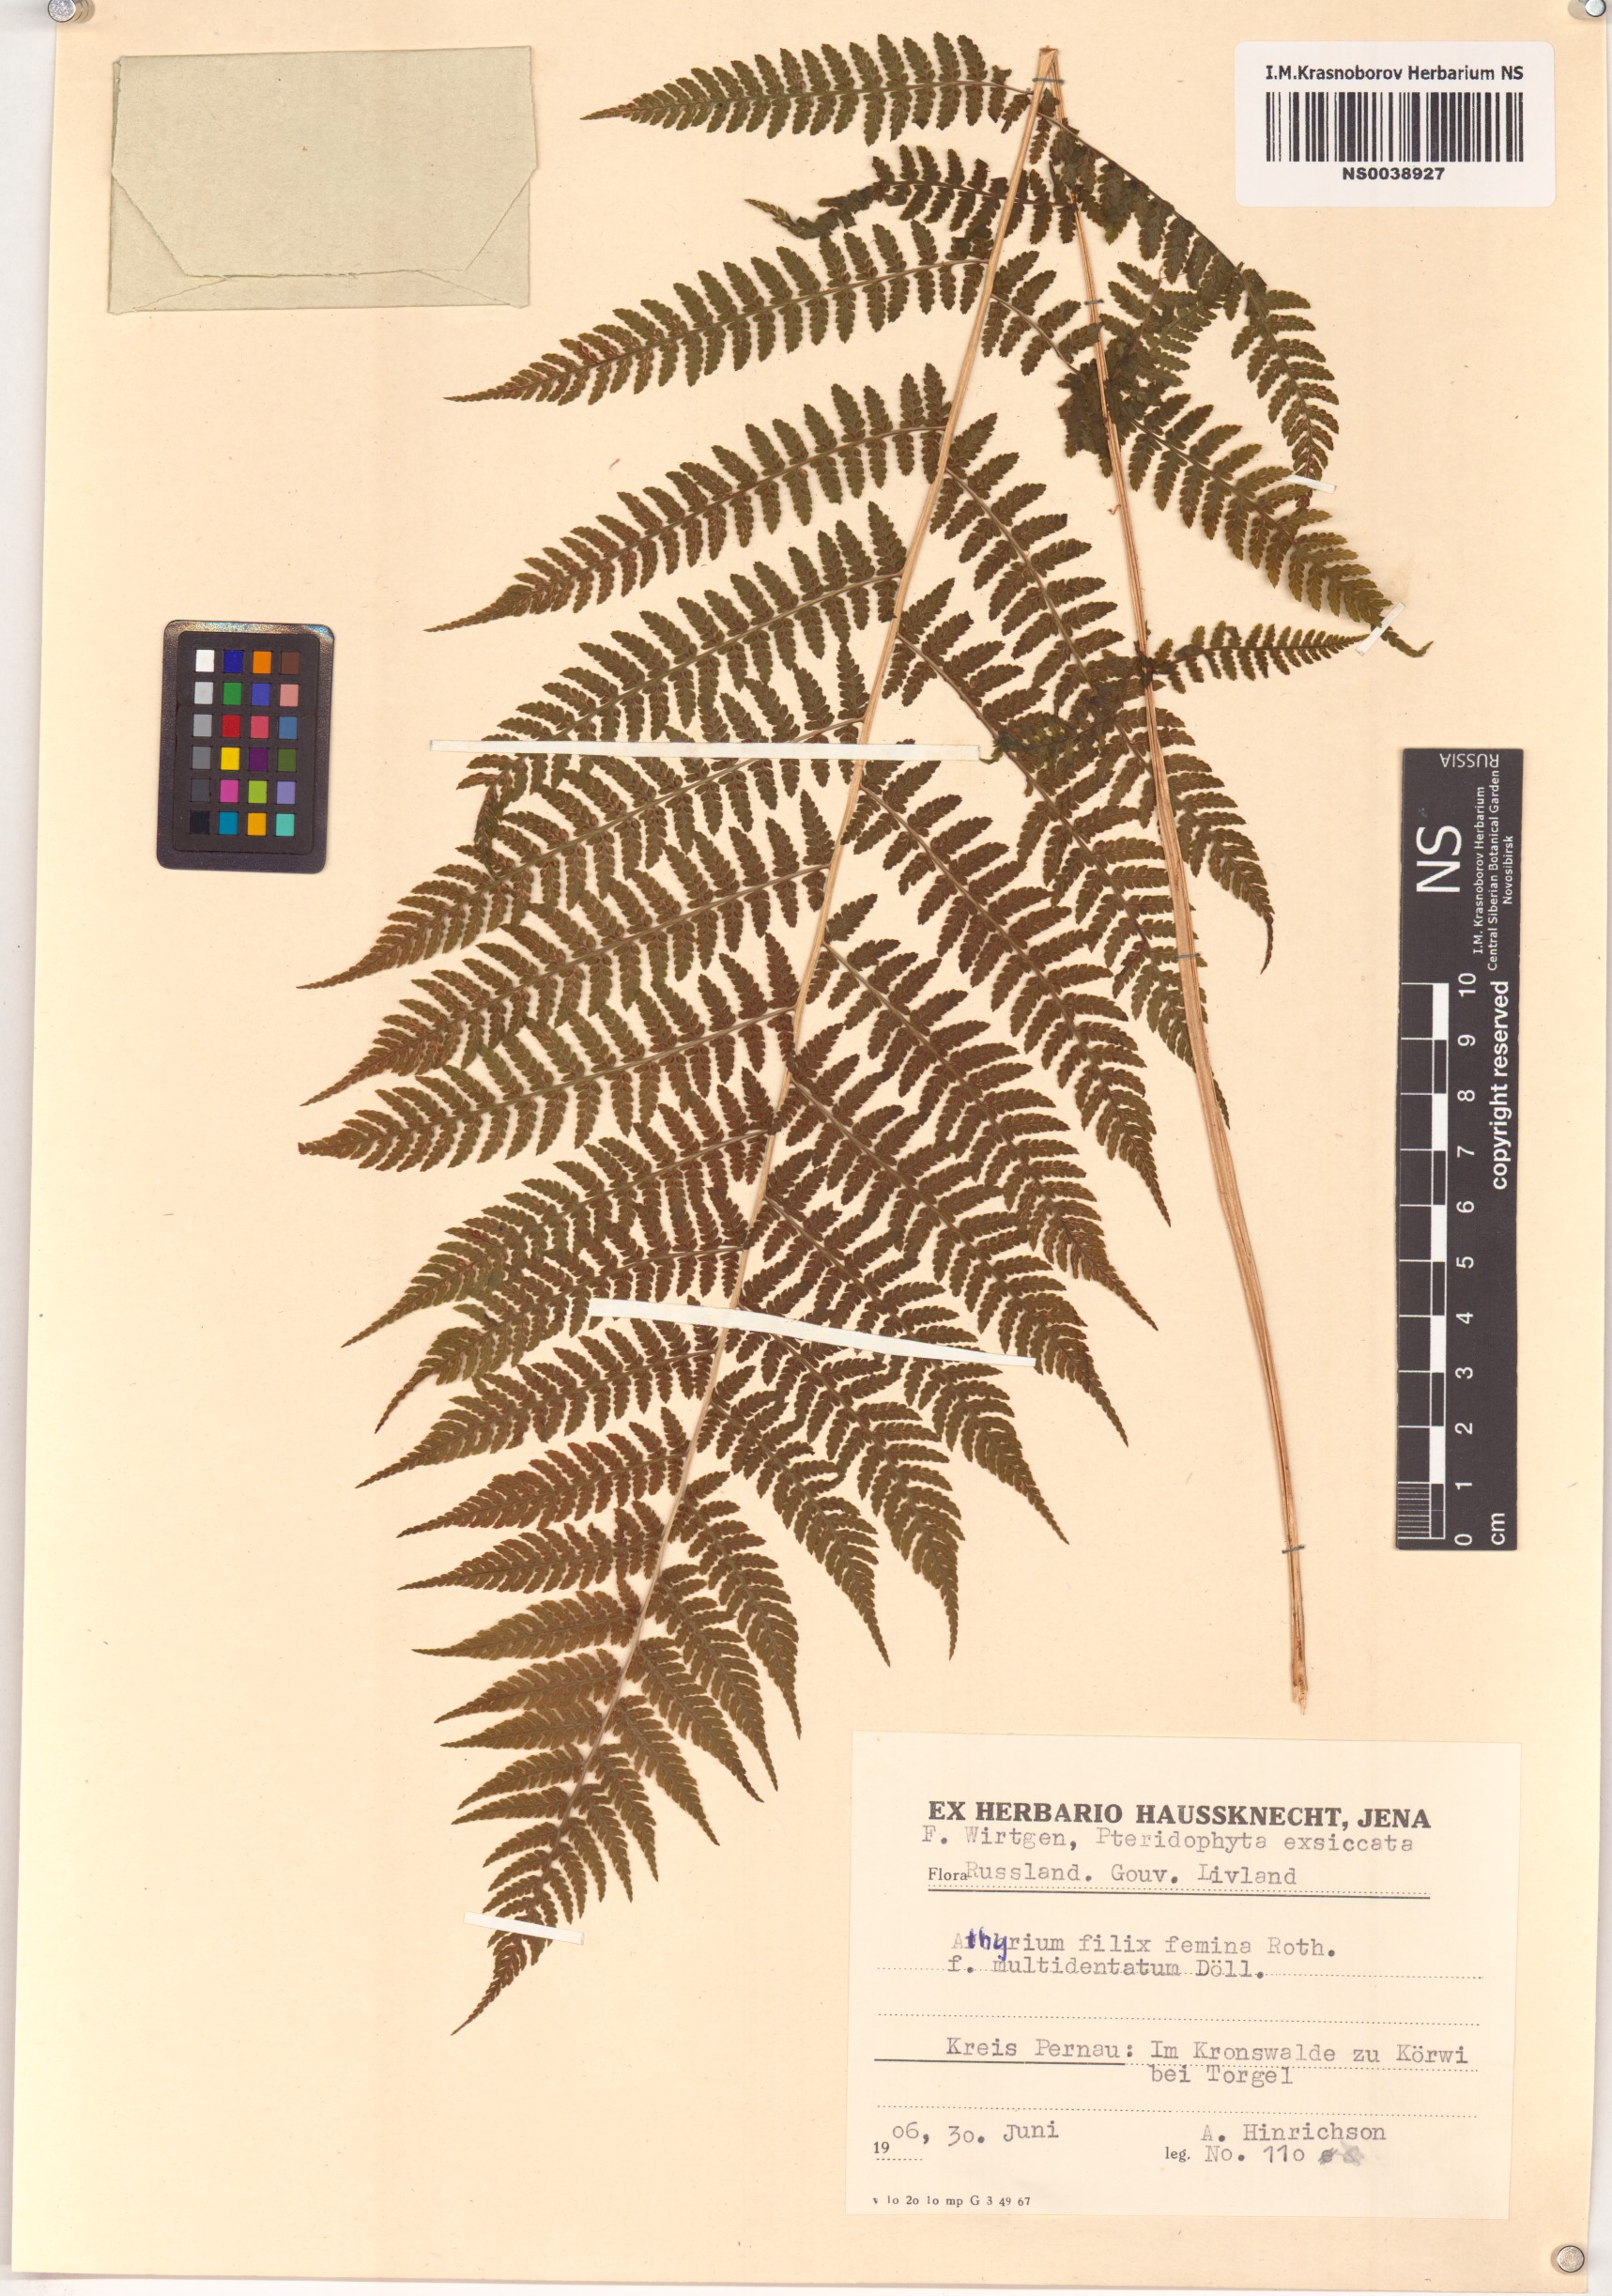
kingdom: Plantae
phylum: Tracheophyta
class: Polypodiopsida
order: Polypodiales
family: Athyriaceae
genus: Athyrium
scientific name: Athyrium filix-femina
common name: Lady fern
